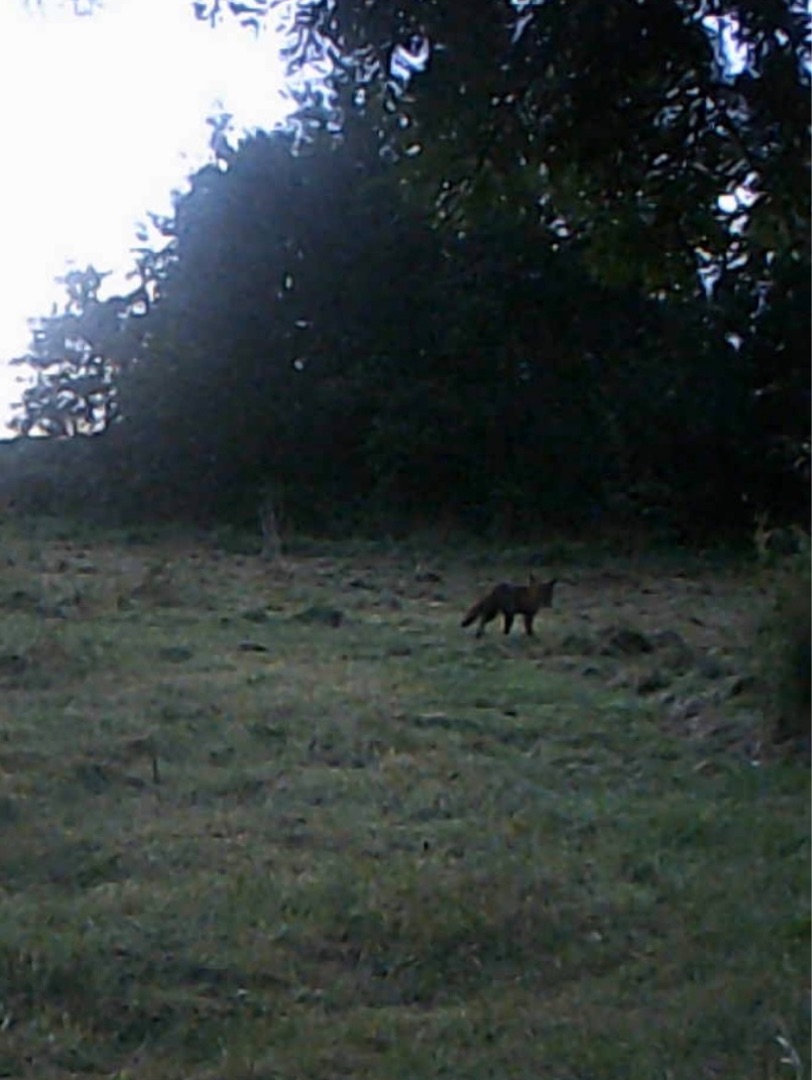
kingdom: Animalia
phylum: Chordata
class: Mammalia
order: Carnivora
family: Canidae
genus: Vulpes
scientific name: Vulpes vulpes
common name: Ræv
